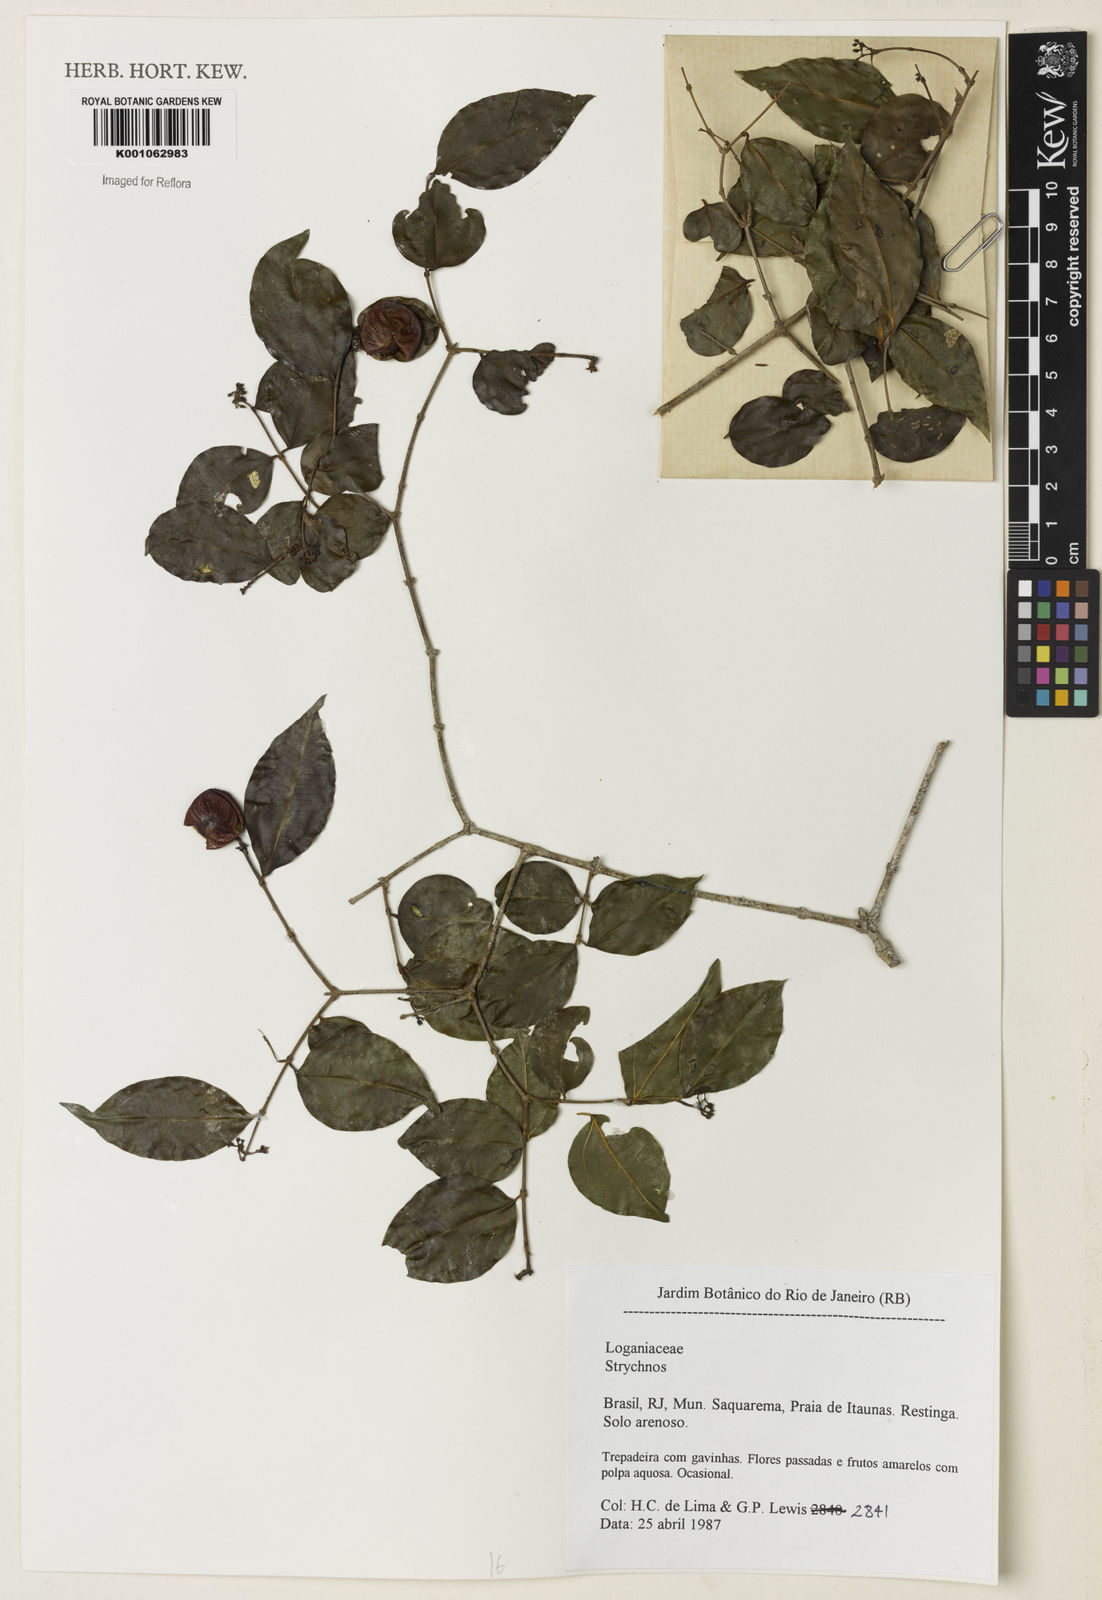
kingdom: Plantae
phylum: Tracheophyta
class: Magnoliopsida
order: Gentianales
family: Loganiaceae
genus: Strychnos
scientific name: Strychnos
